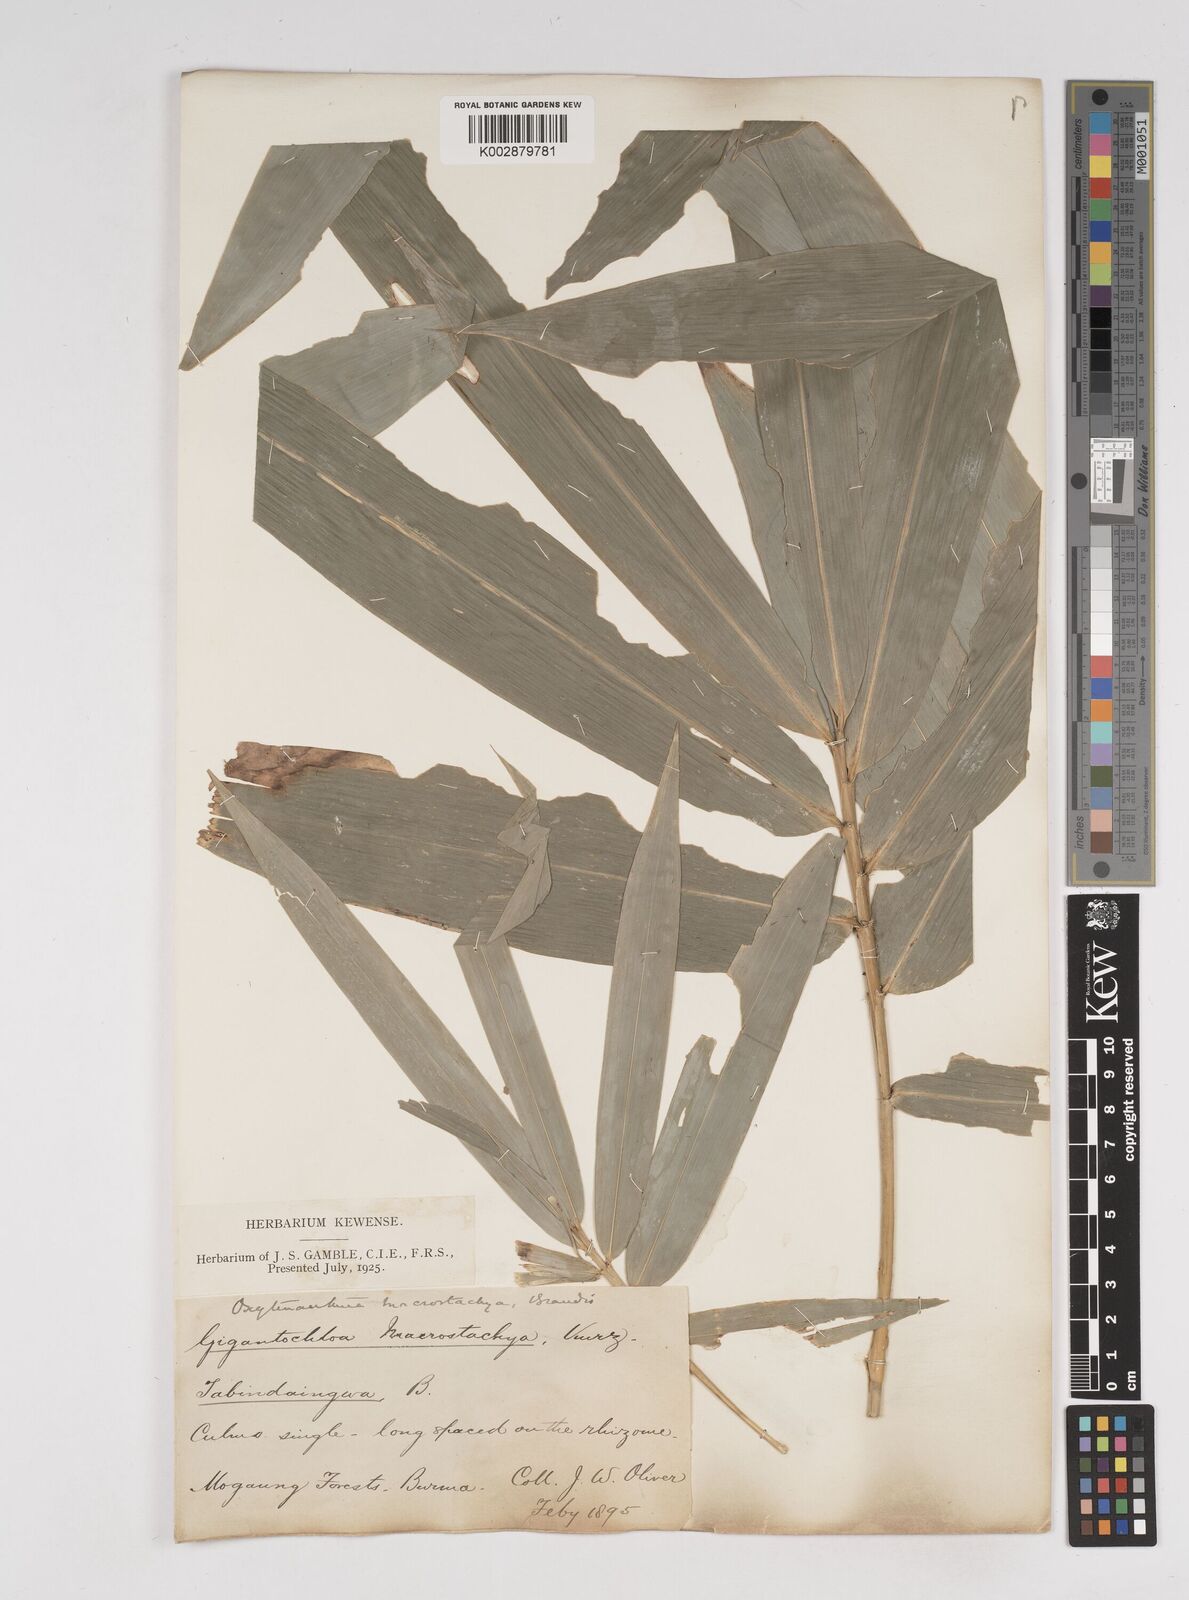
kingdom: Plantae
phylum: Tracheophyta
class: Liliopsida
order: Poales
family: Poaceae
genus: Gigantochloa
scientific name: Gigantochloa macrostachya
